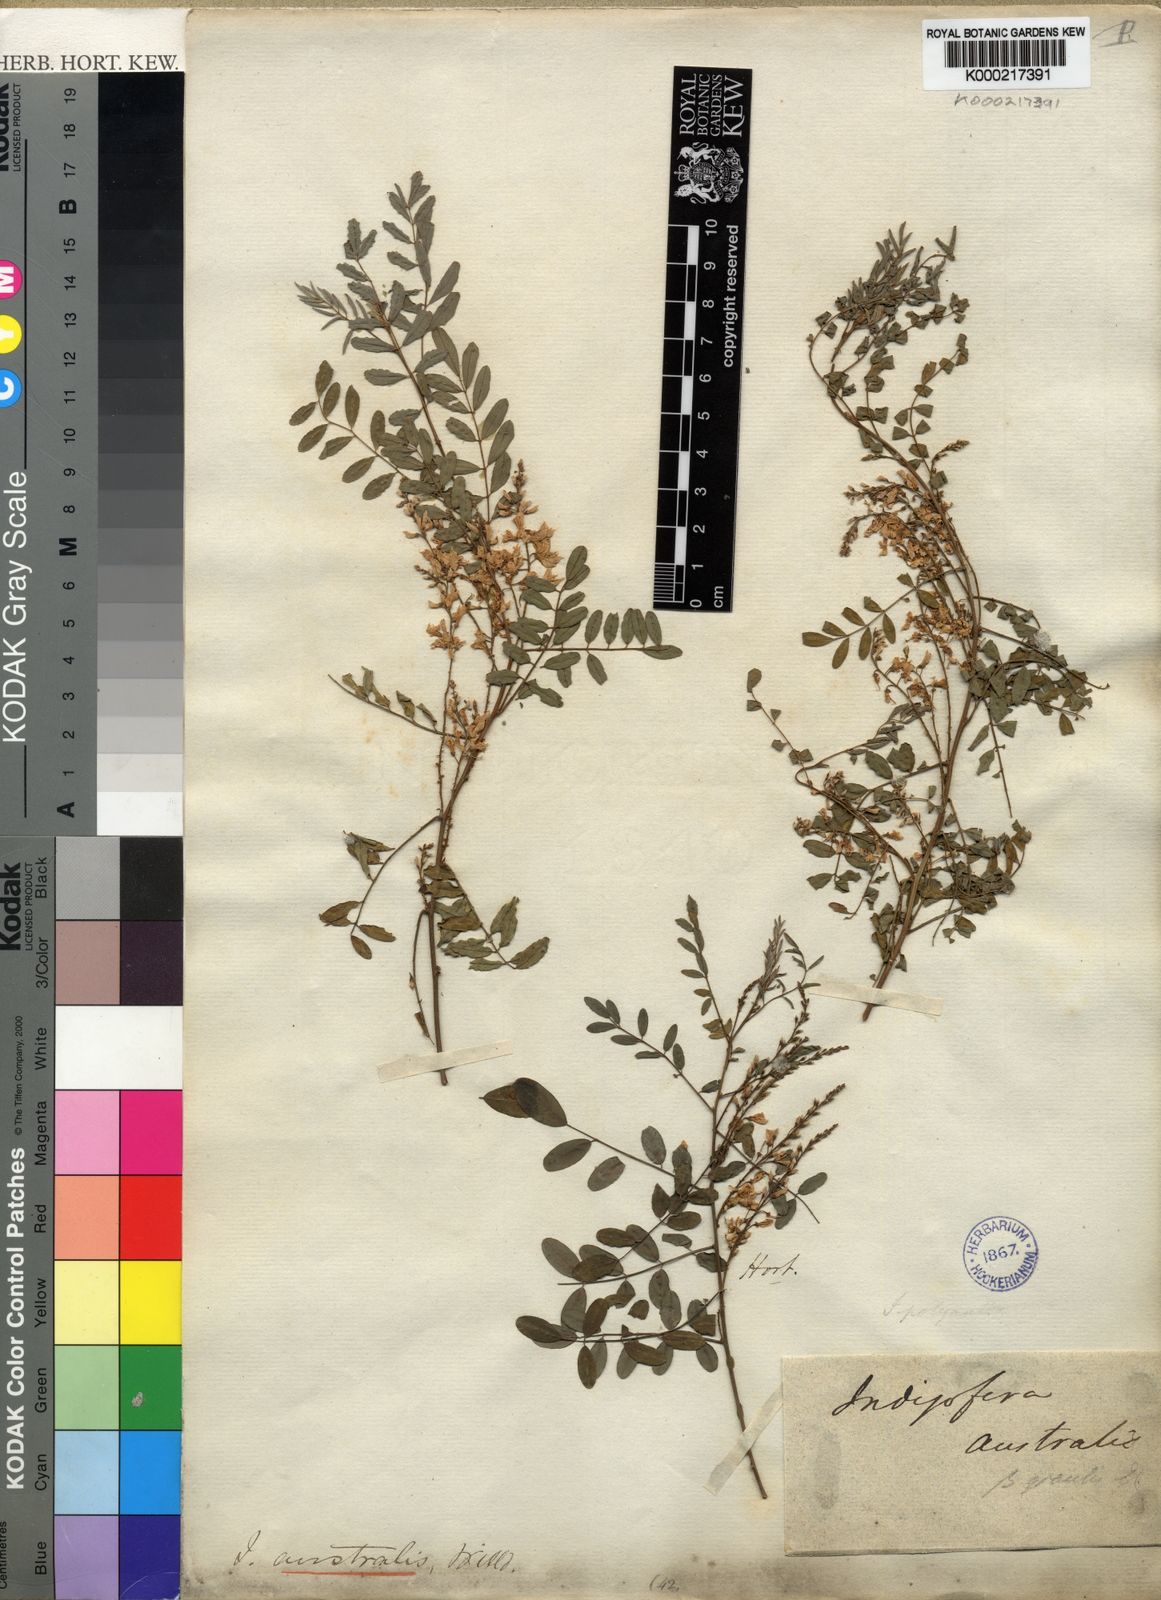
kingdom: Plantae
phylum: Tracheophyta
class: Magnoliopsida
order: Fabales
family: Fabaceae
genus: Indigofera
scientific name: Indigofera australis
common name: Australian indigo
